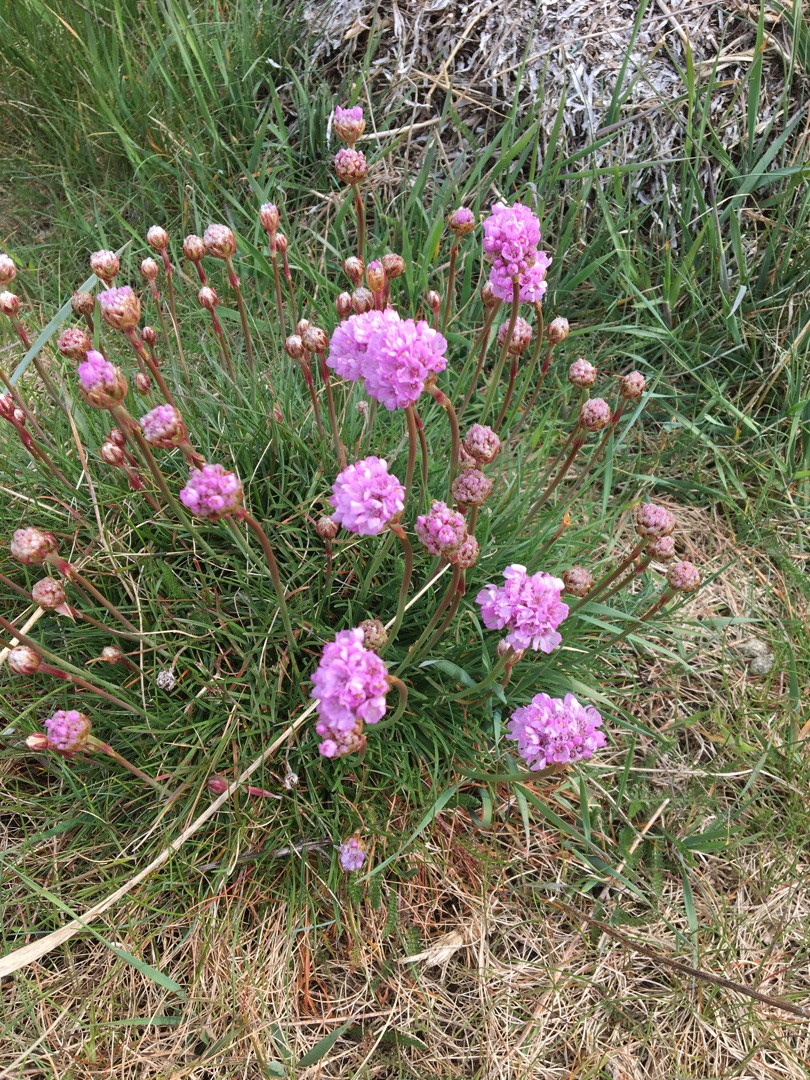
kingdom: Plantae
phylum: Tracheophyta
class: Magnoliopsida
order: Caryophyllales
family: Plumbaginaceae
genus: Armeria
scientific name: Armeria maritima
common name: Engelskgræs
